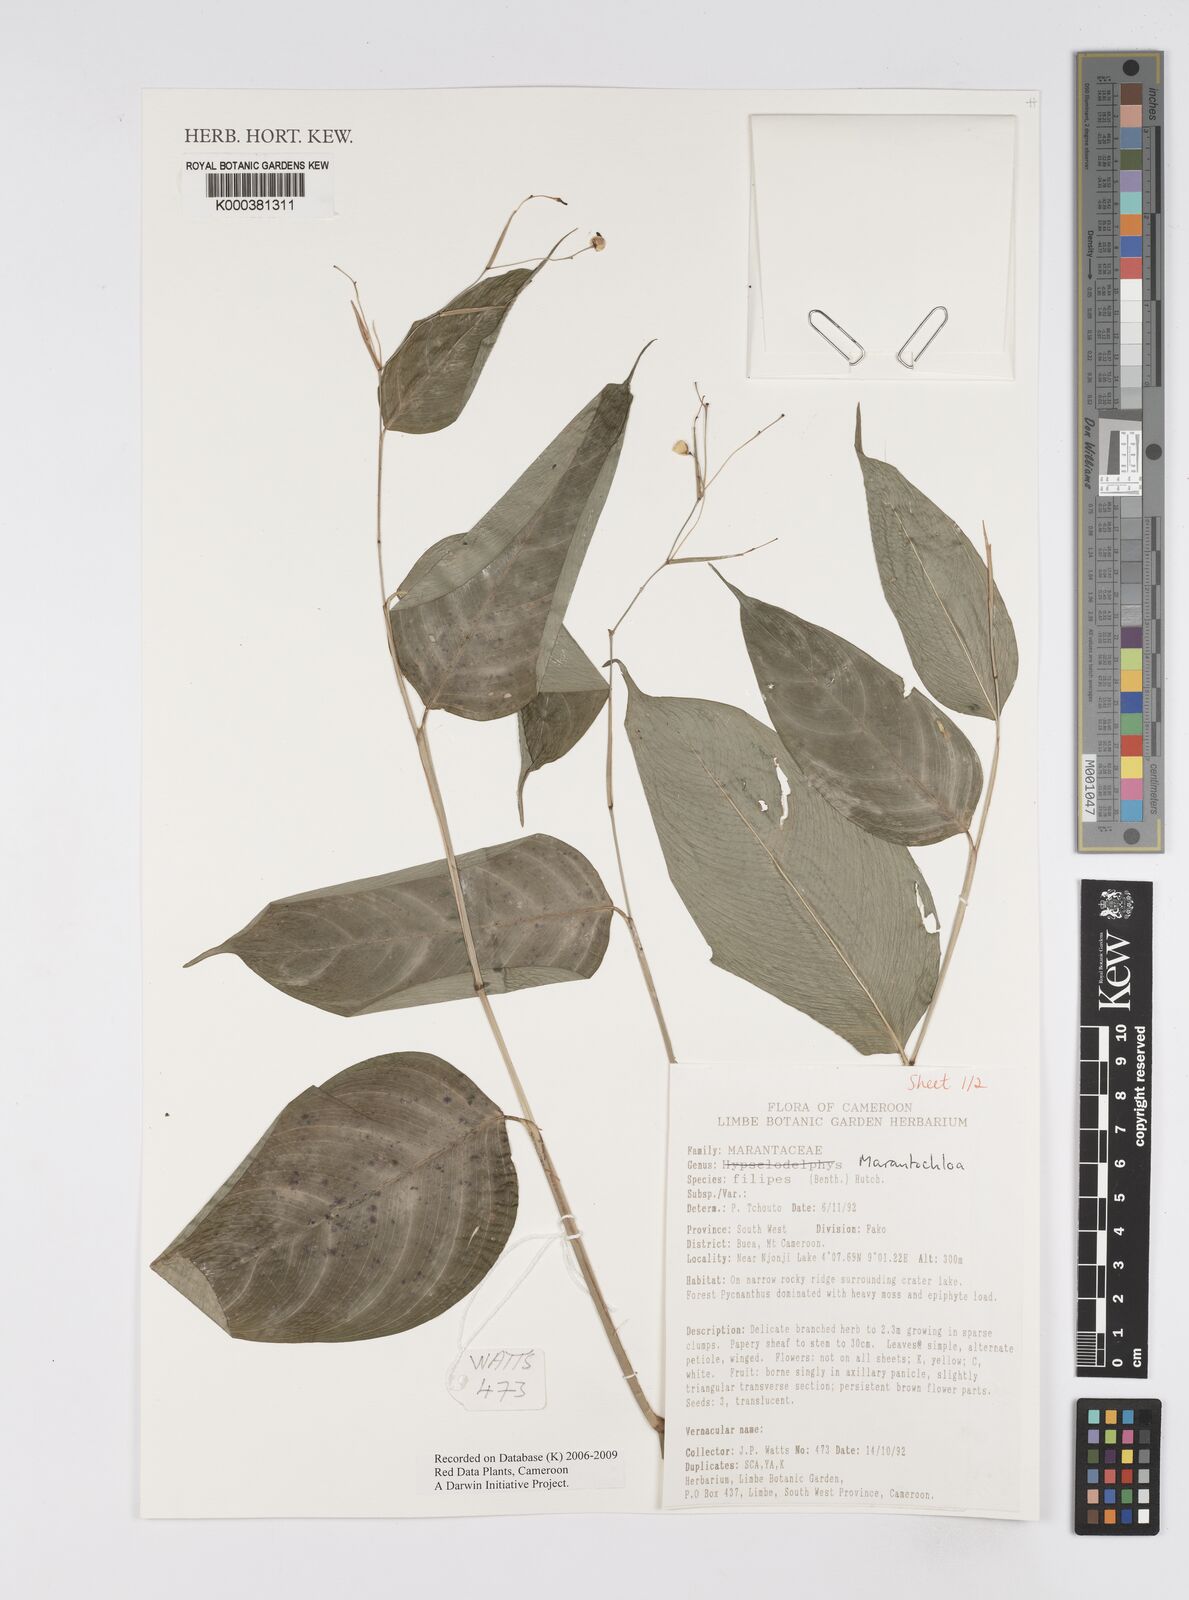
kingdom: Plantae
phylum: Tracheophyta
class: Liliopsida
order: Zingiberales
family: Marantaceae
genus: Marantochloa
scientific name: Marantochloa filipes
